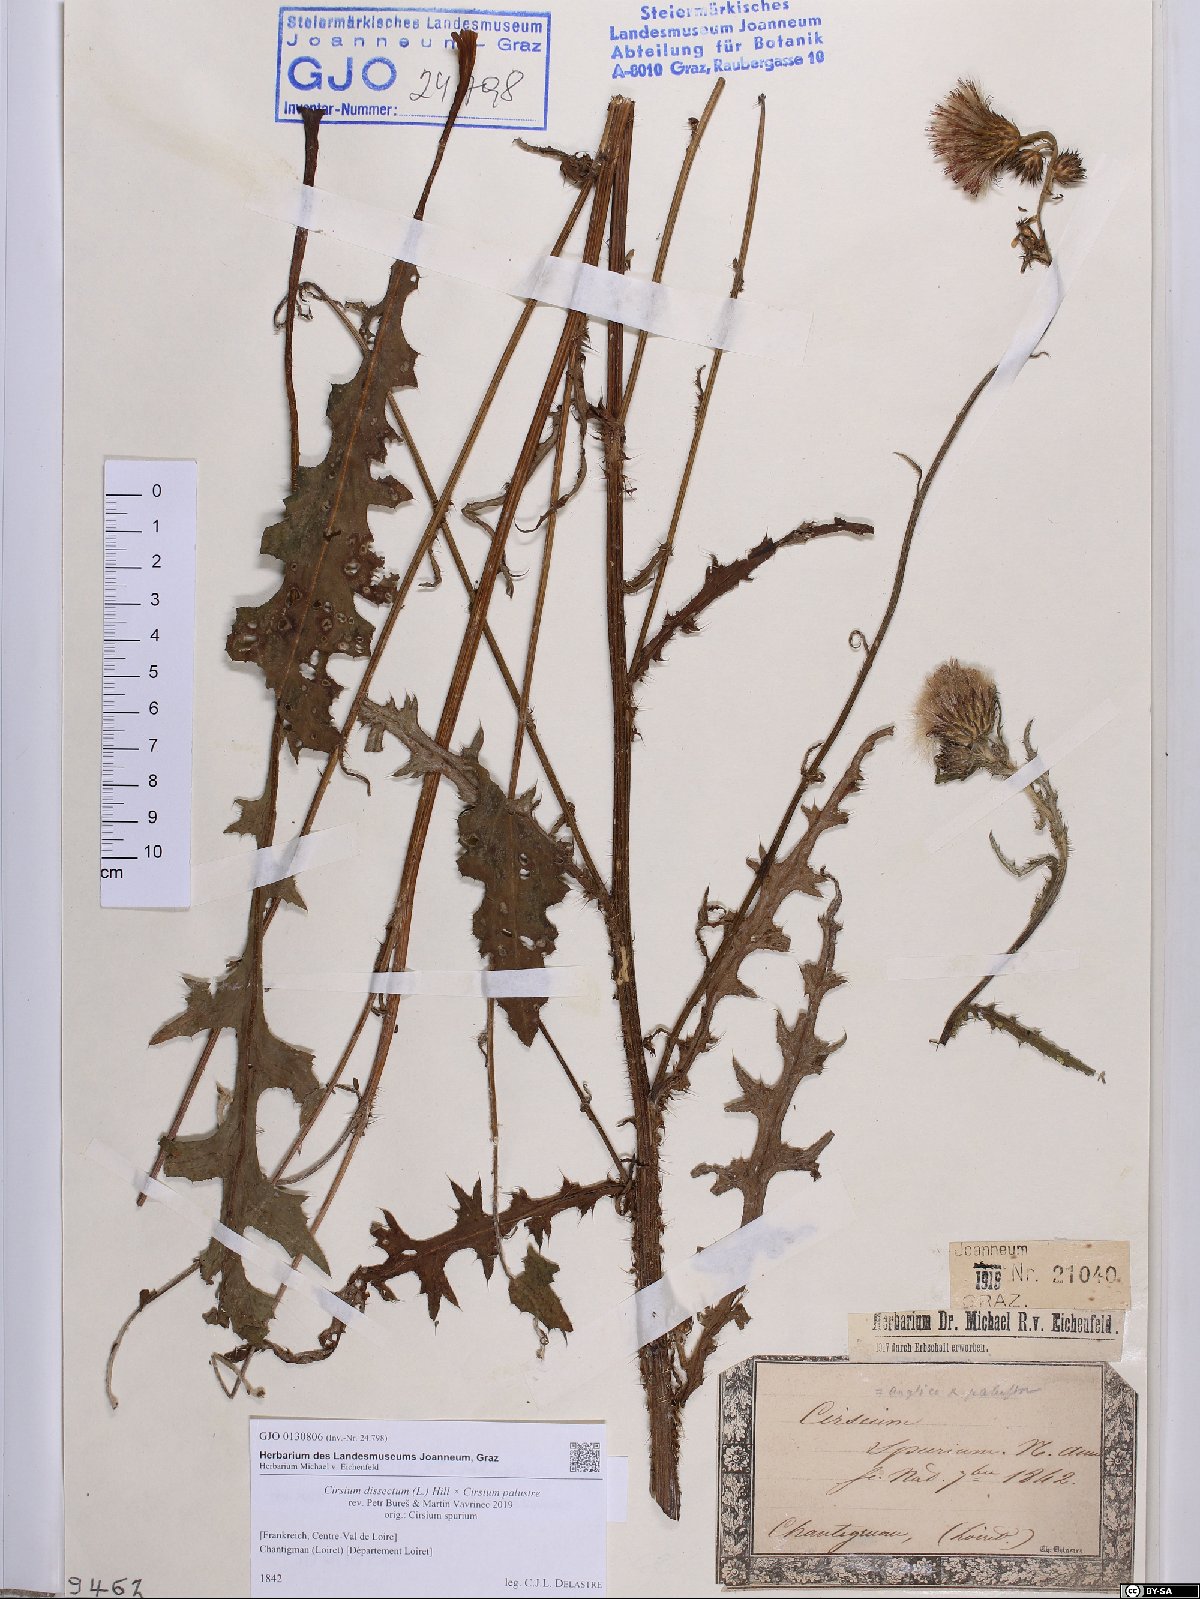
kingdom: Plantae
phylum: Tracheophyta
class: Magnoliopsida
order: Asterales
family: Asteraceae
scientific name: Asteraceae
